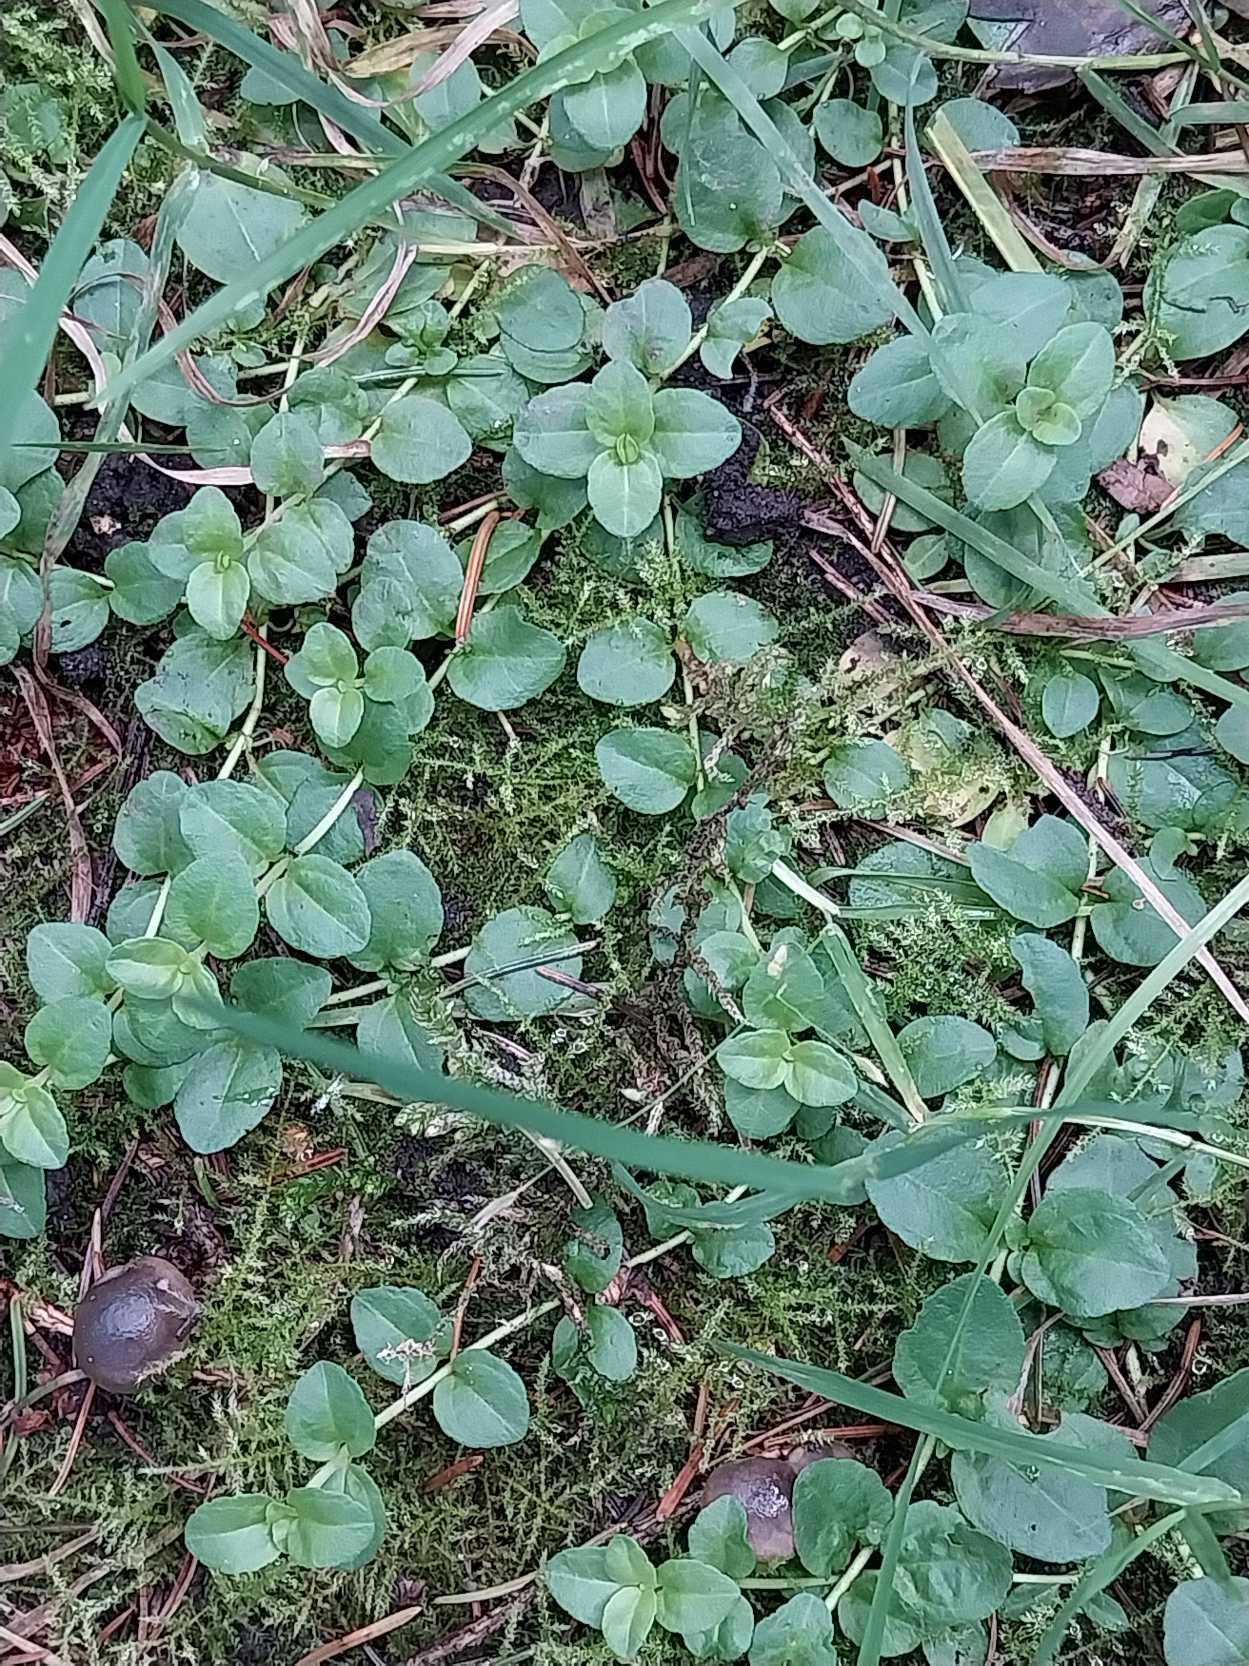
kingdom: Plantae
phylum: Tracheophyta
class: Magnoliopsida
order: Lamiales
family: Plantaginaceae
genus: Veronica
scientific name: Veronica serpyllifolia
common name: Glat ærenpris
